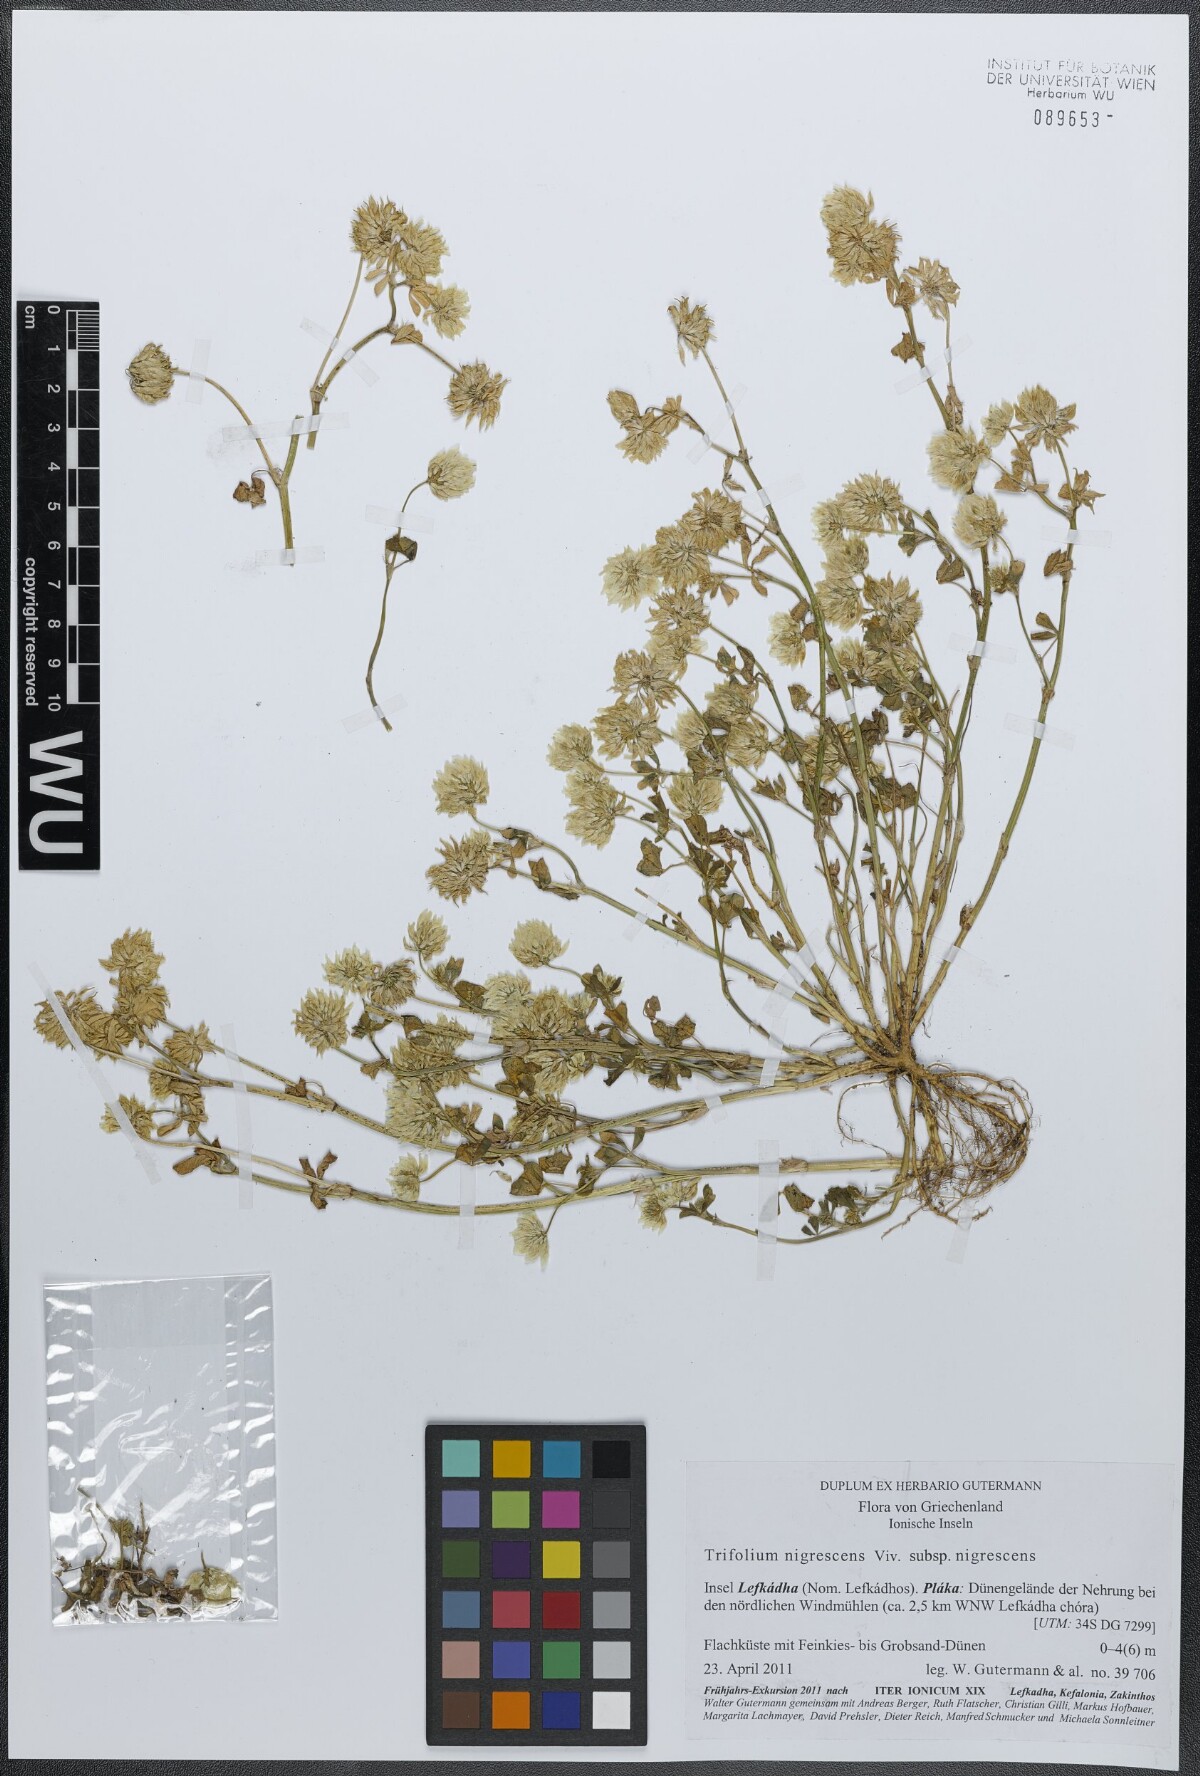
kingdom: Plantae
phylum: Tracheophyta
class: Magnoliopsida
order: Fabales
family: Fabaceae
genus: Trifolium
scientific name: Trifolium nigrescens
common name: Small white clover
